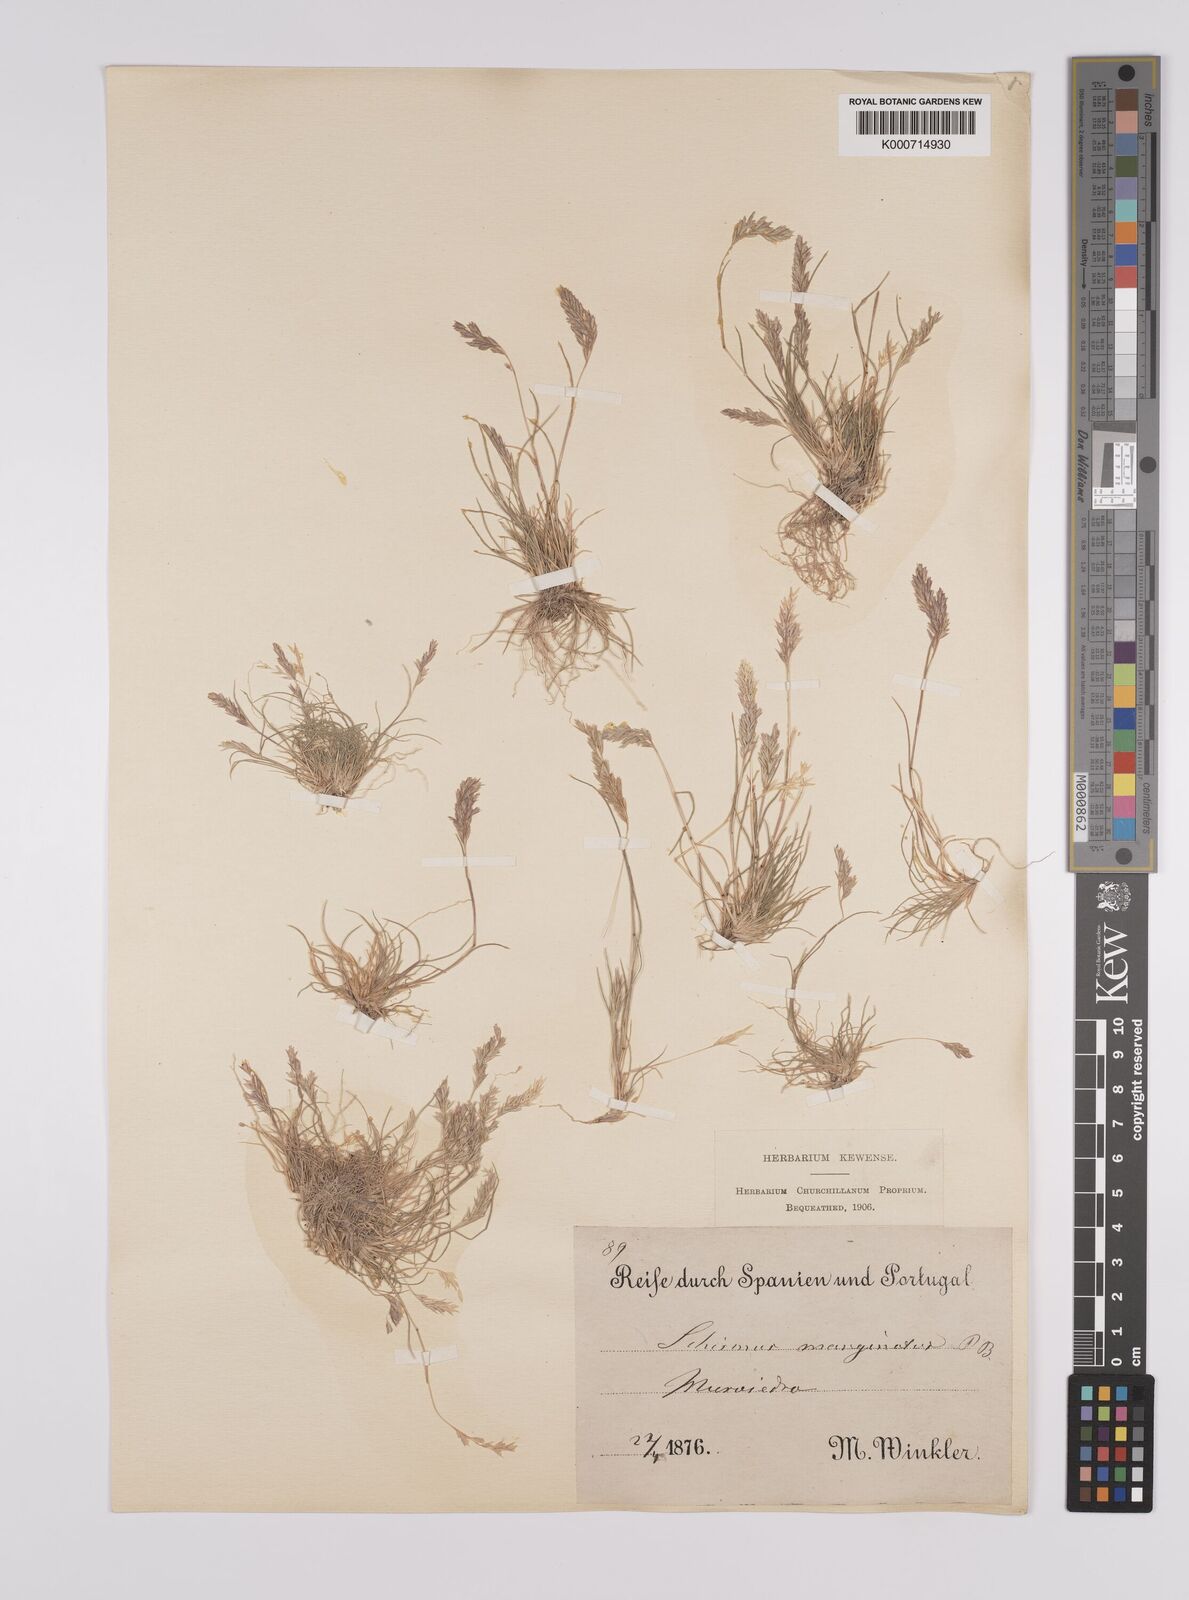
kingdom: Plantae
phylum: Tracheophyta
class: Liliopsida
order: Poales
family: Poaceae
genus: Schismus
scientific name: Schismus barbatus
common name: Kelch-grass
